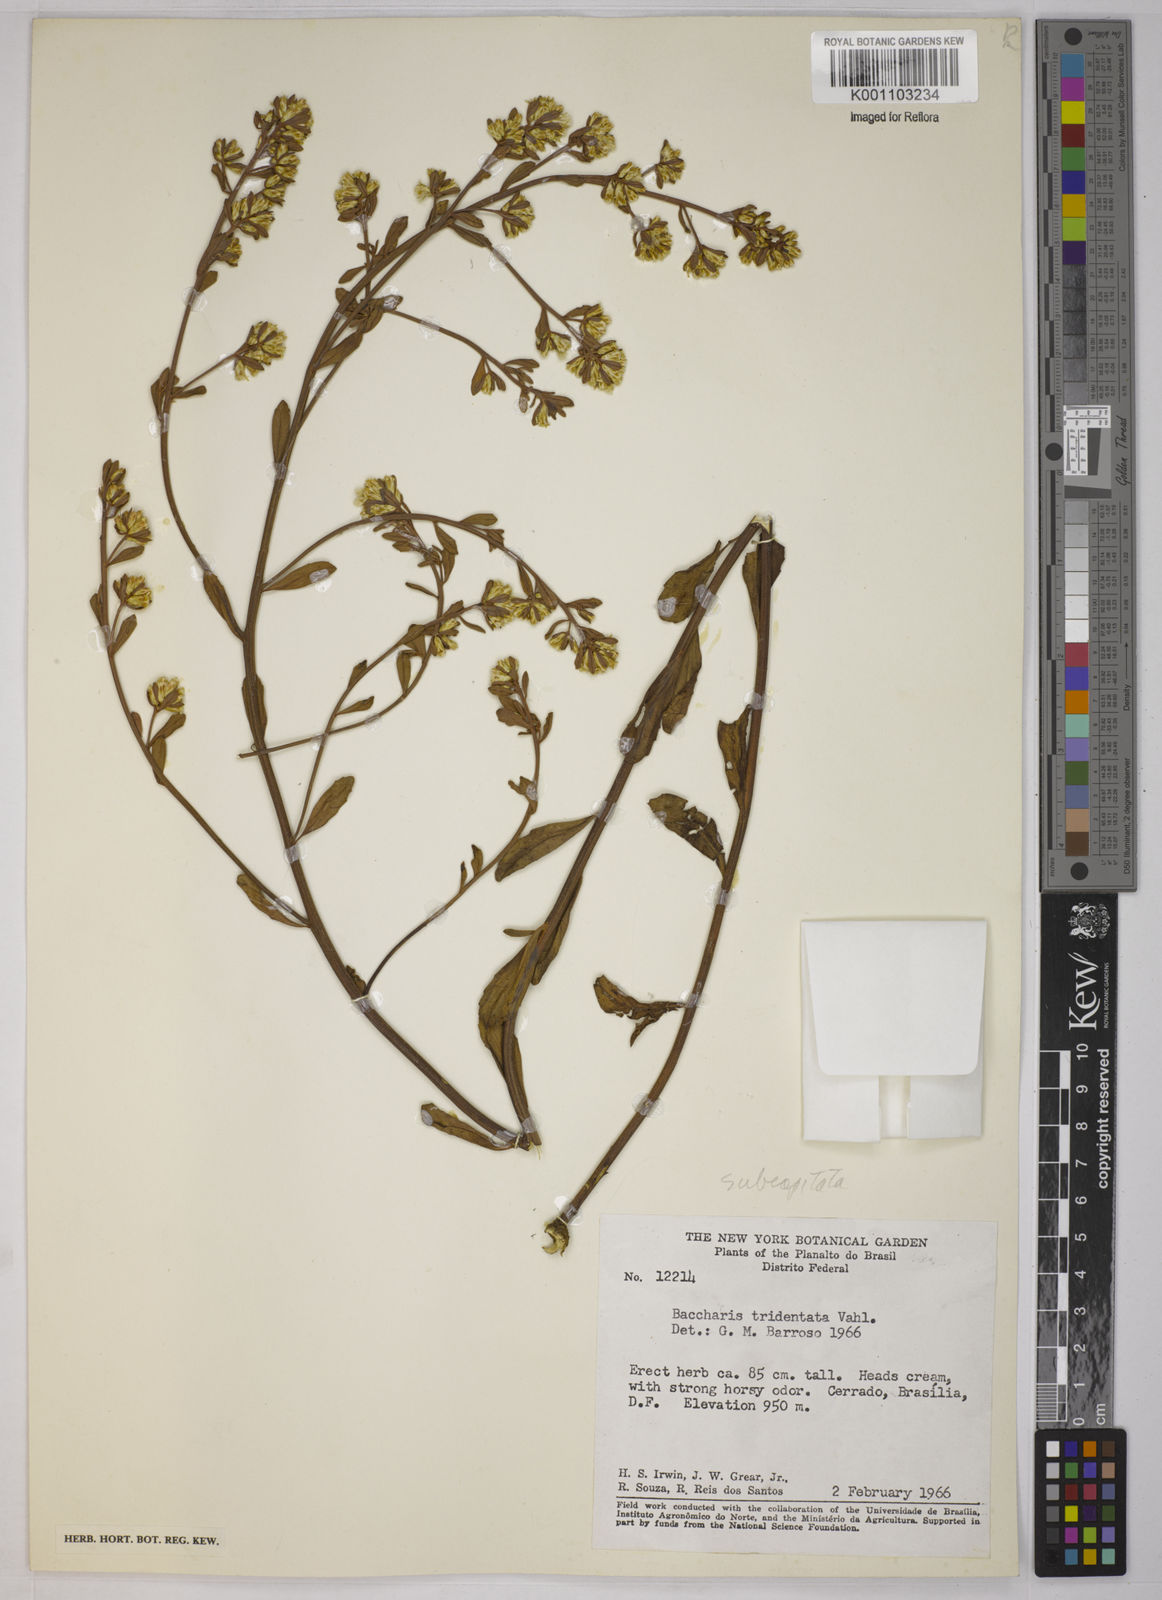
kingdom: Plantae
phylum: Tracheophyta
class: Magnoliopsida
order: Asterales
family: Asteraceae
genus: Baccharis
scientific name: Baccharis subdentata
